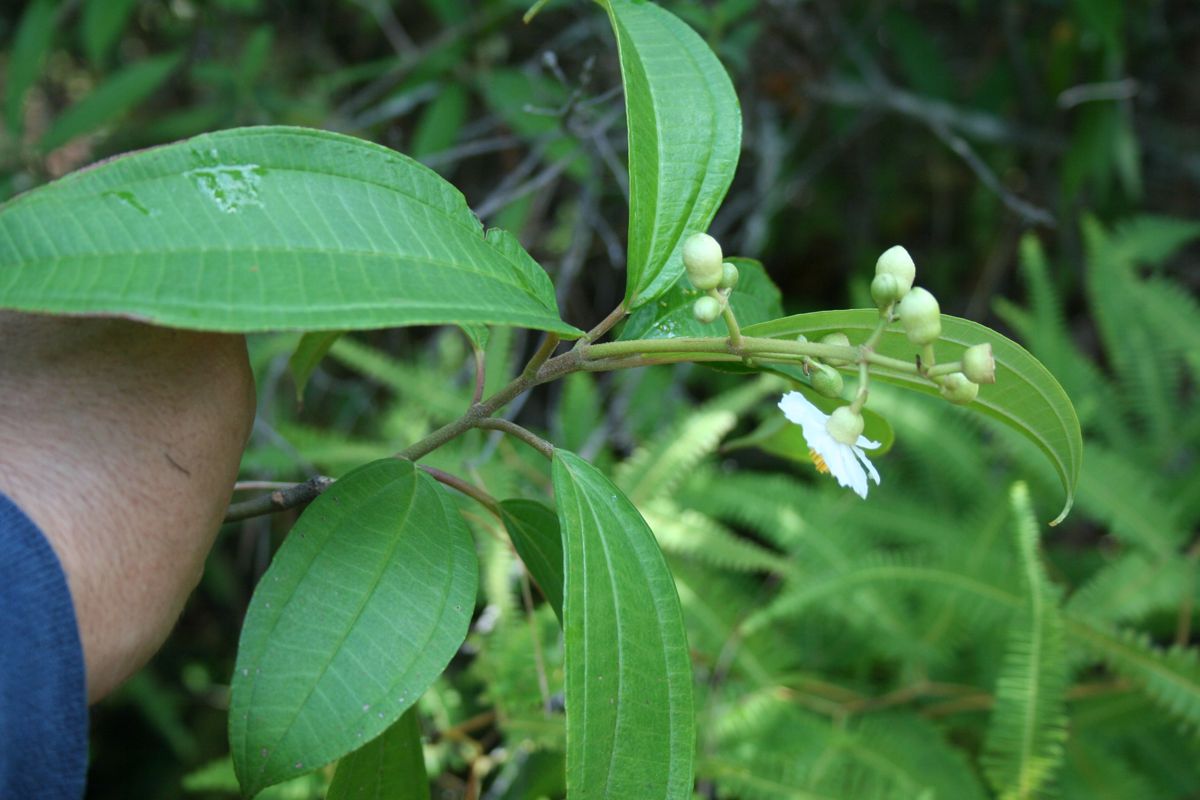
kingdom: Plantae
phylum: Tracheophyta
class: Magnoliopsida
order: Myrtales
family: Melastomataceae
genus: Miconia
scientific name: Miconia subhirsuta
